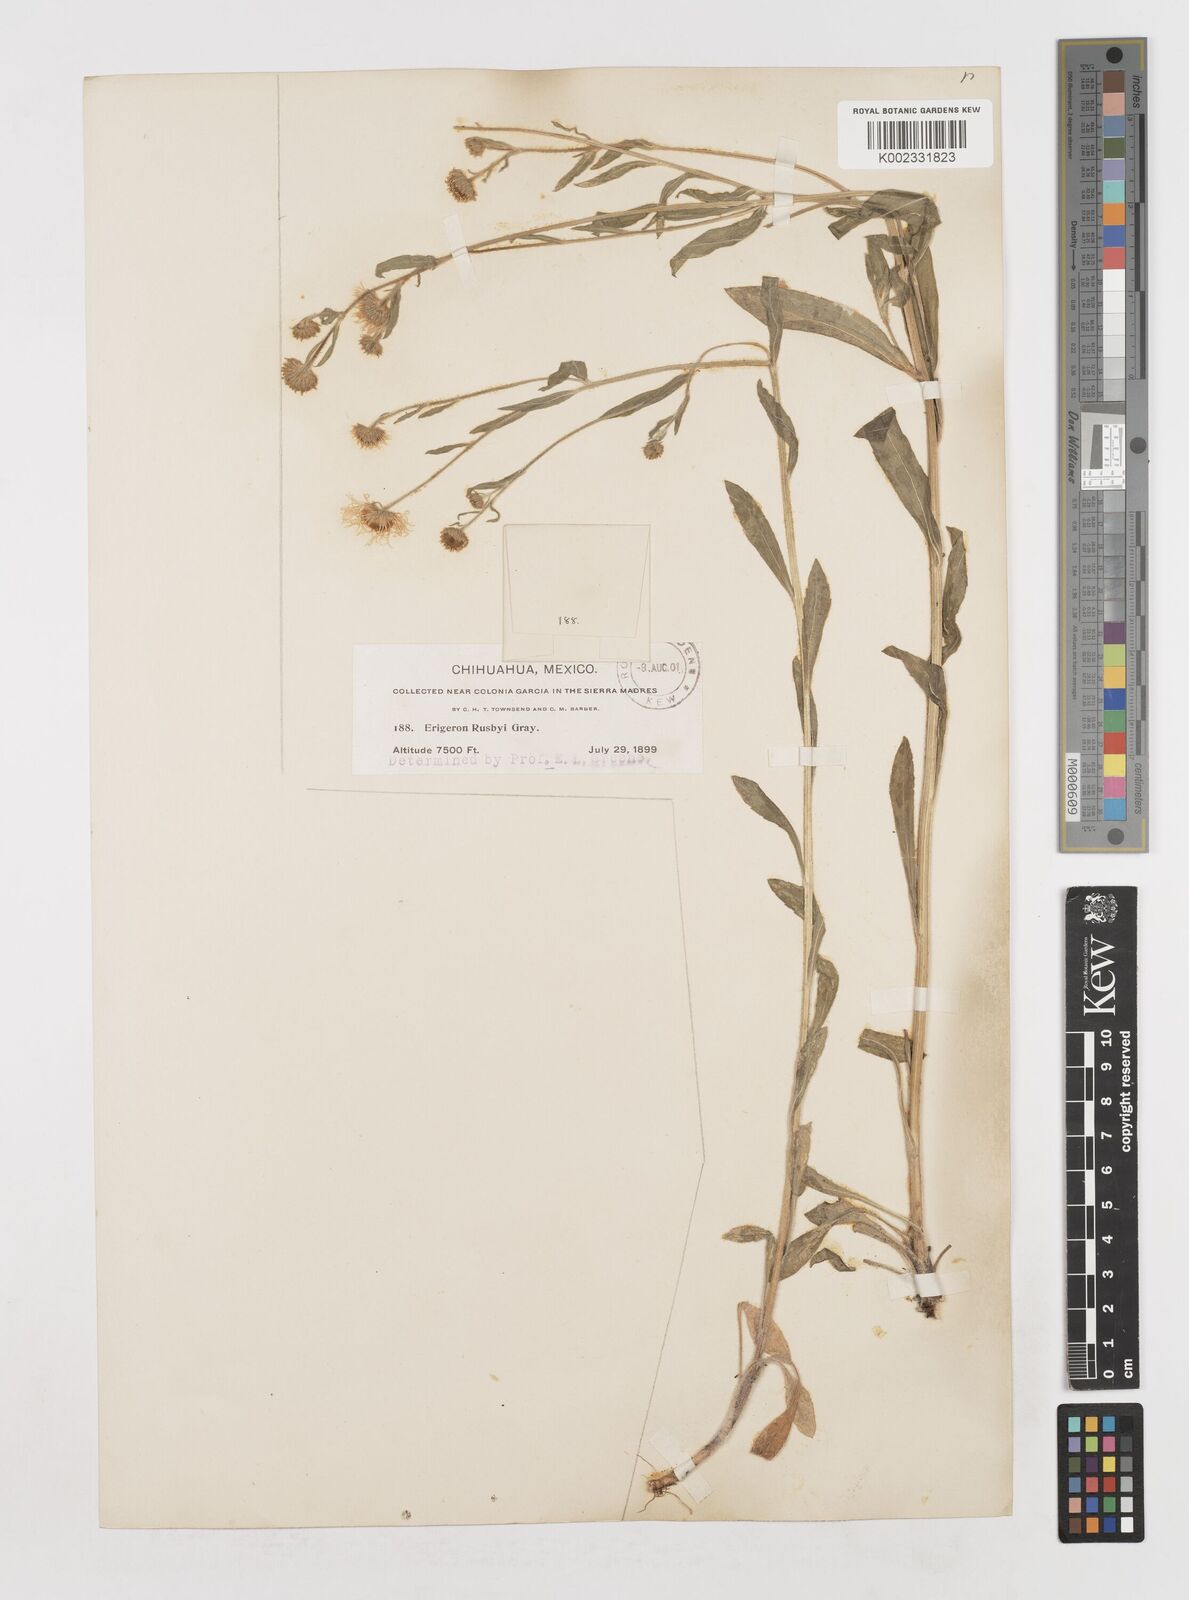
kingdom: Plantae
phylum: Tracheophyta
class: Magnoliopsida
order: Asterales
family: Asteraceae
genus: Erigeron
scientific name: Erigeron arizonicus
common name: Arizona fleabane
